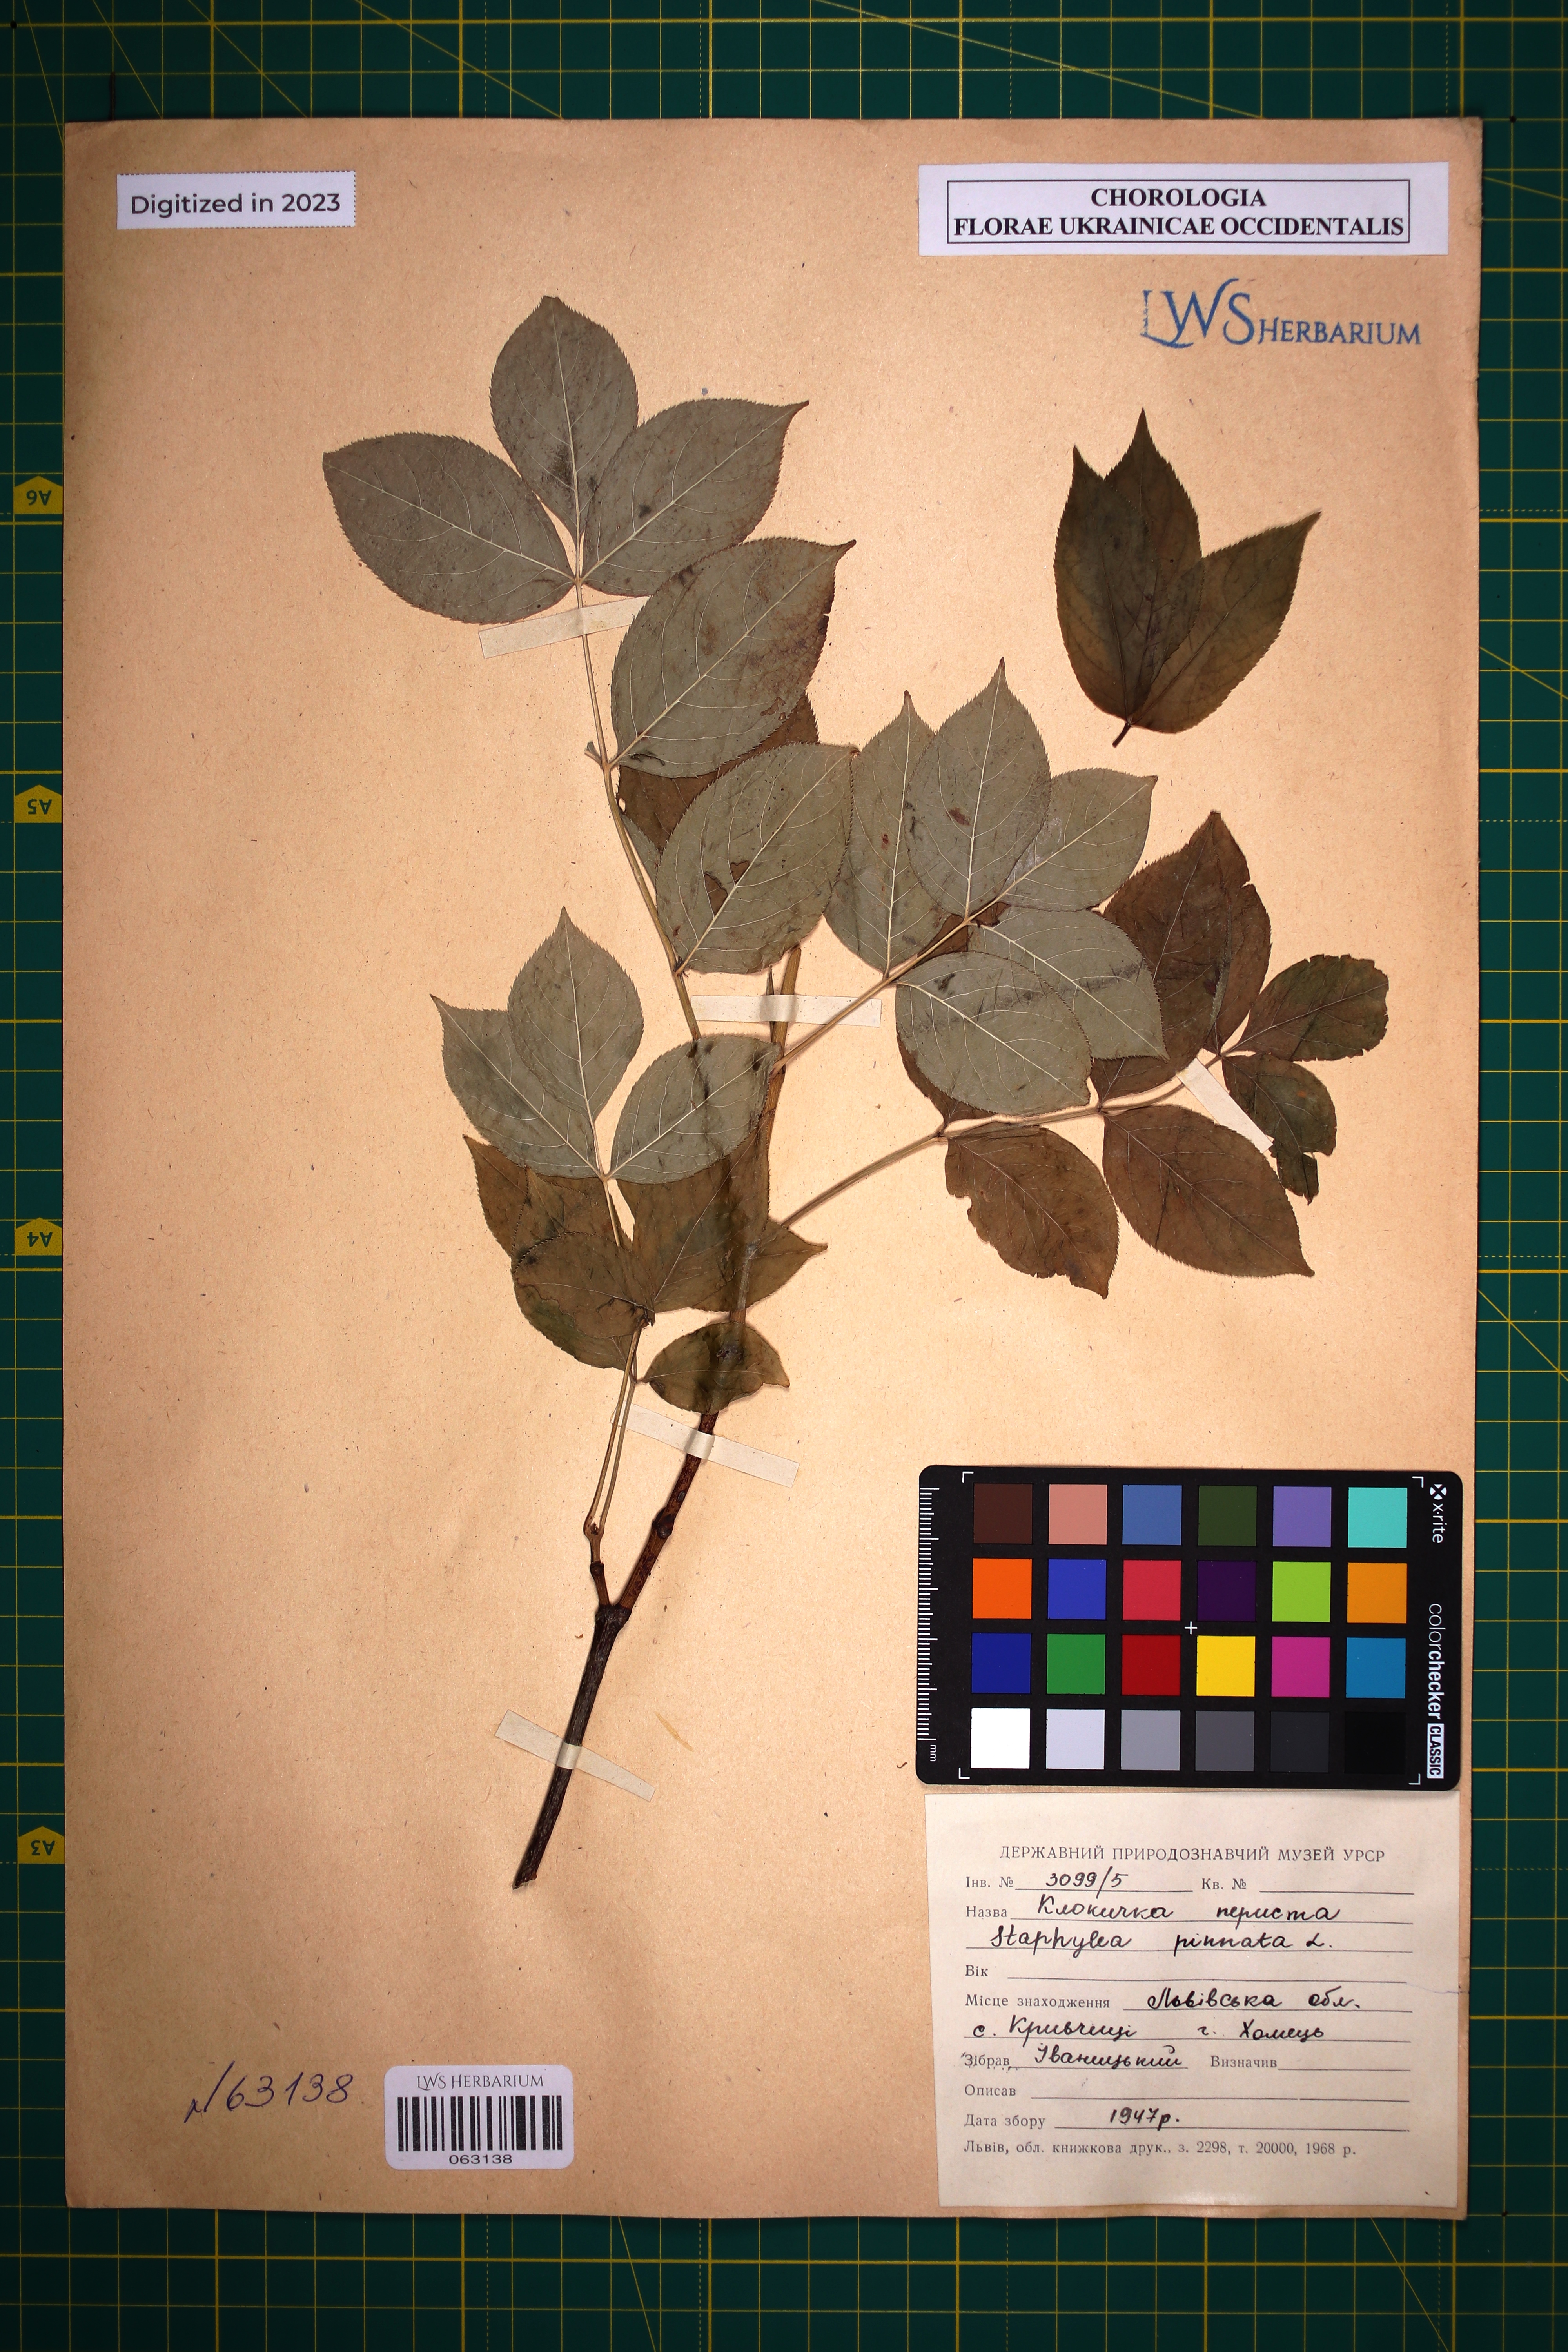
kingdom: Plantae
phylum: Tracheophyta
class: Magnoliopsida
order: Crossosomatales
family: Staphyleaceae
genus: Staphylea
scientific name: Staphylea pinnata
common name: Bladdernut
